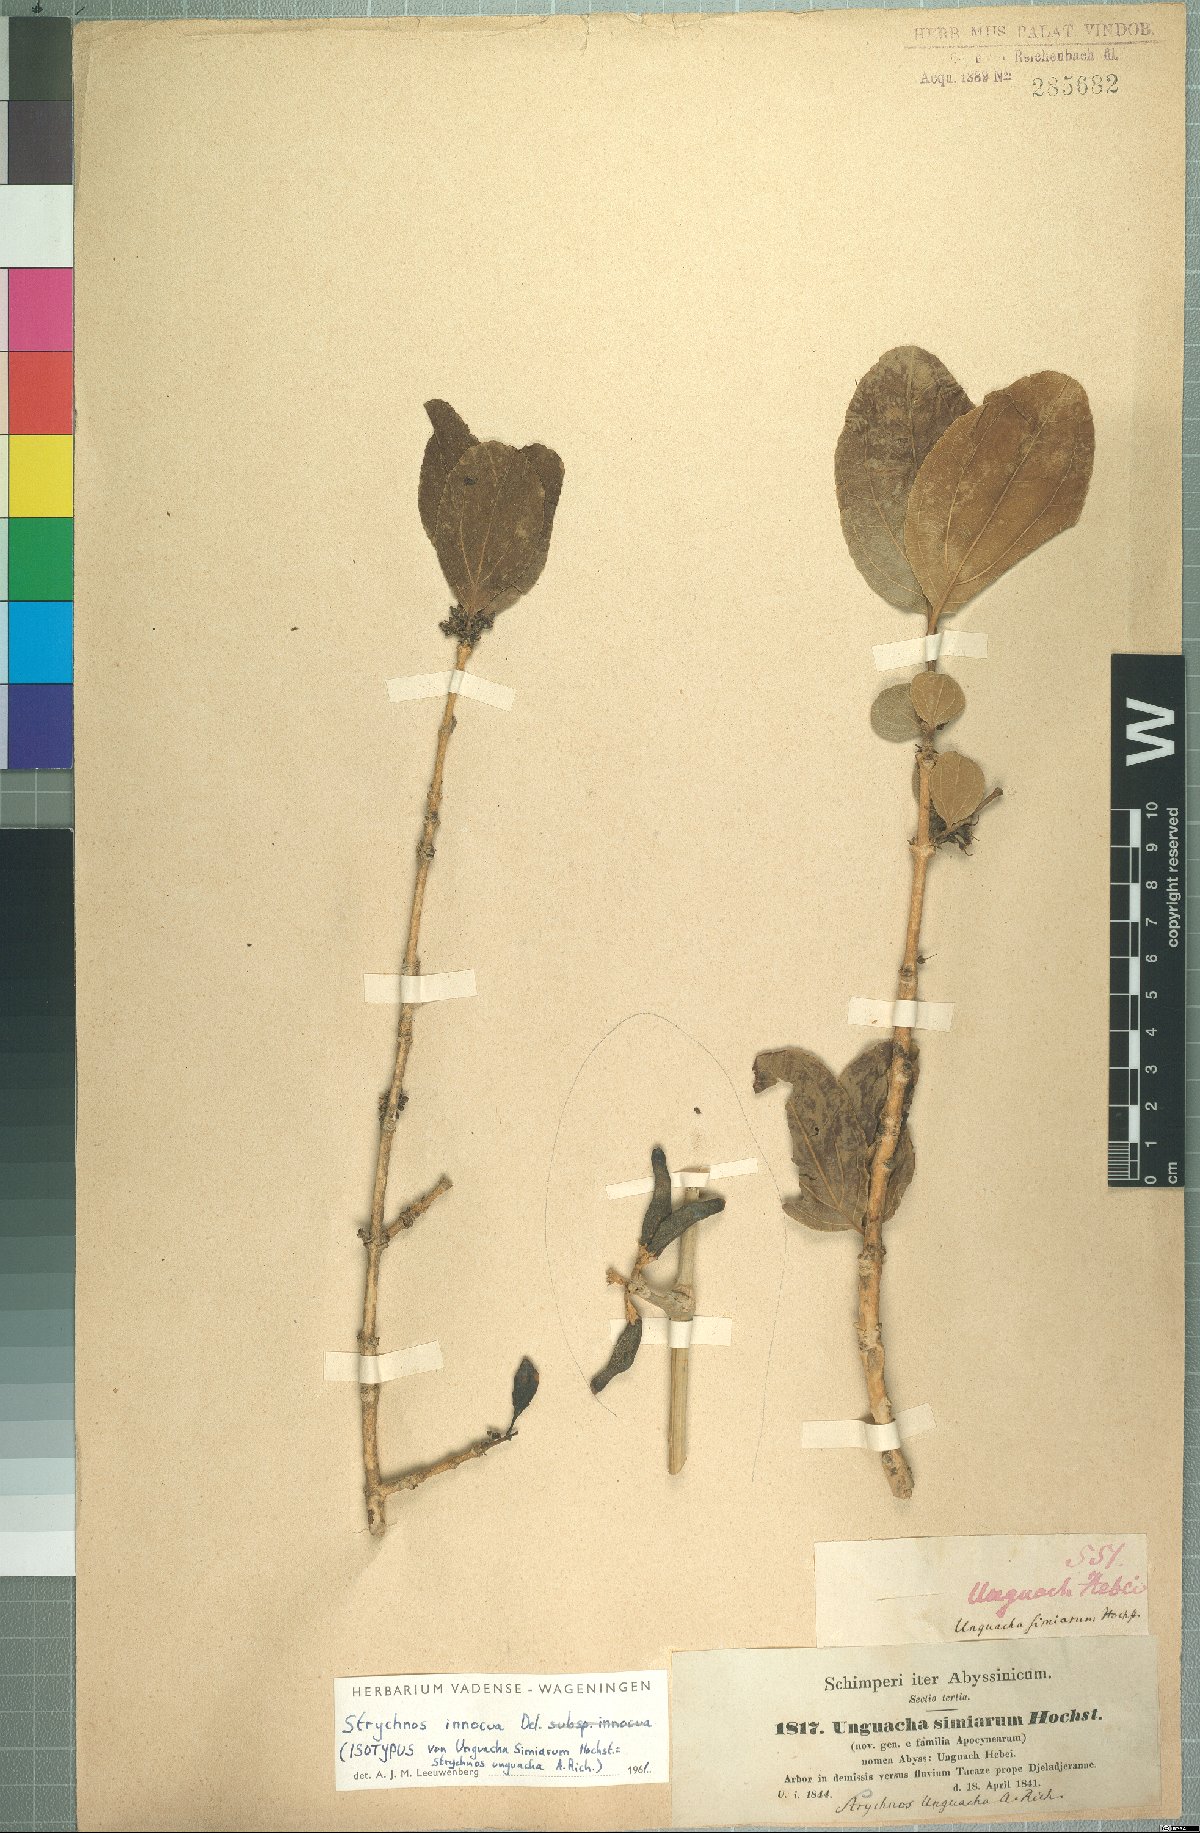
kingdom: Plantae
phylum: Tracheophyta
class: Magnoliopsida
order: Gentianales
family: Loganiaceae
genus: Strychnos
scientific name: Strychnos innocua
